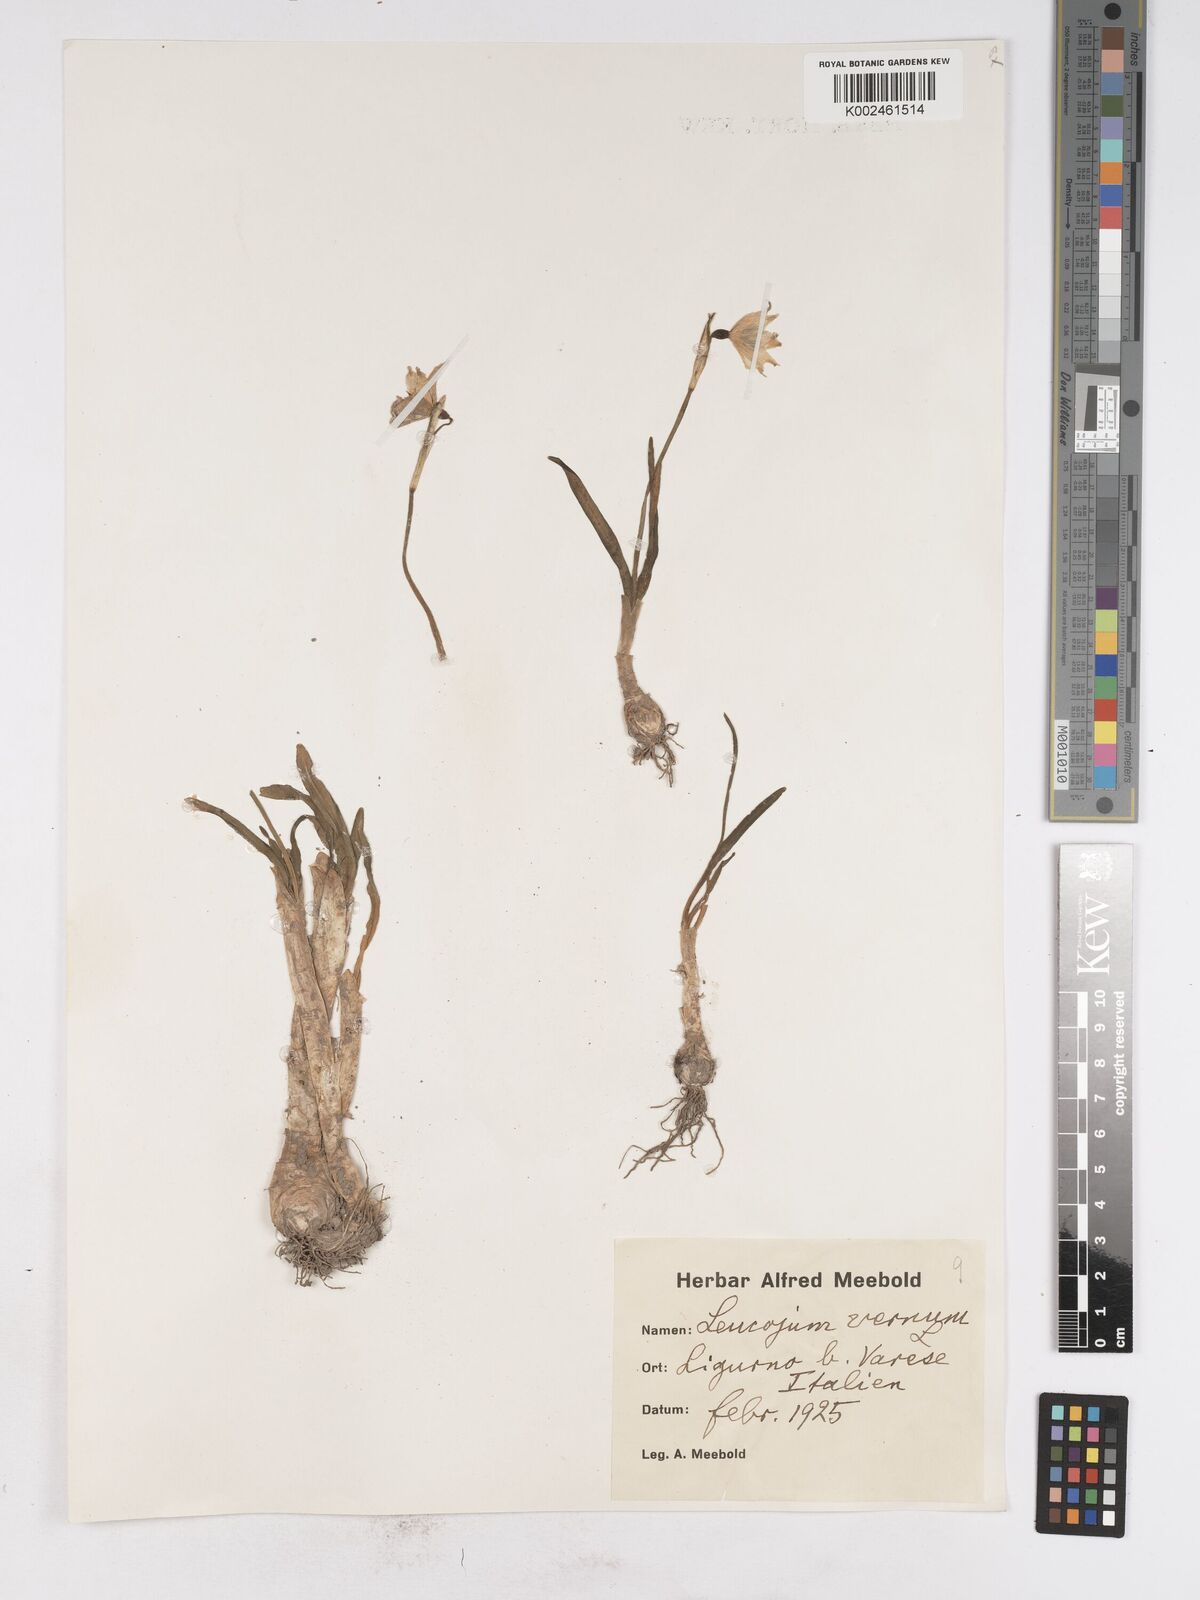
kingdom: Plantae
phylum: Tracheophyta
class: Liliopsida
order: Asparagales
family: Amaryllidaceae
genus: Leucojum
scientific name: Leucojum vernum
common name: Spring snowflake
